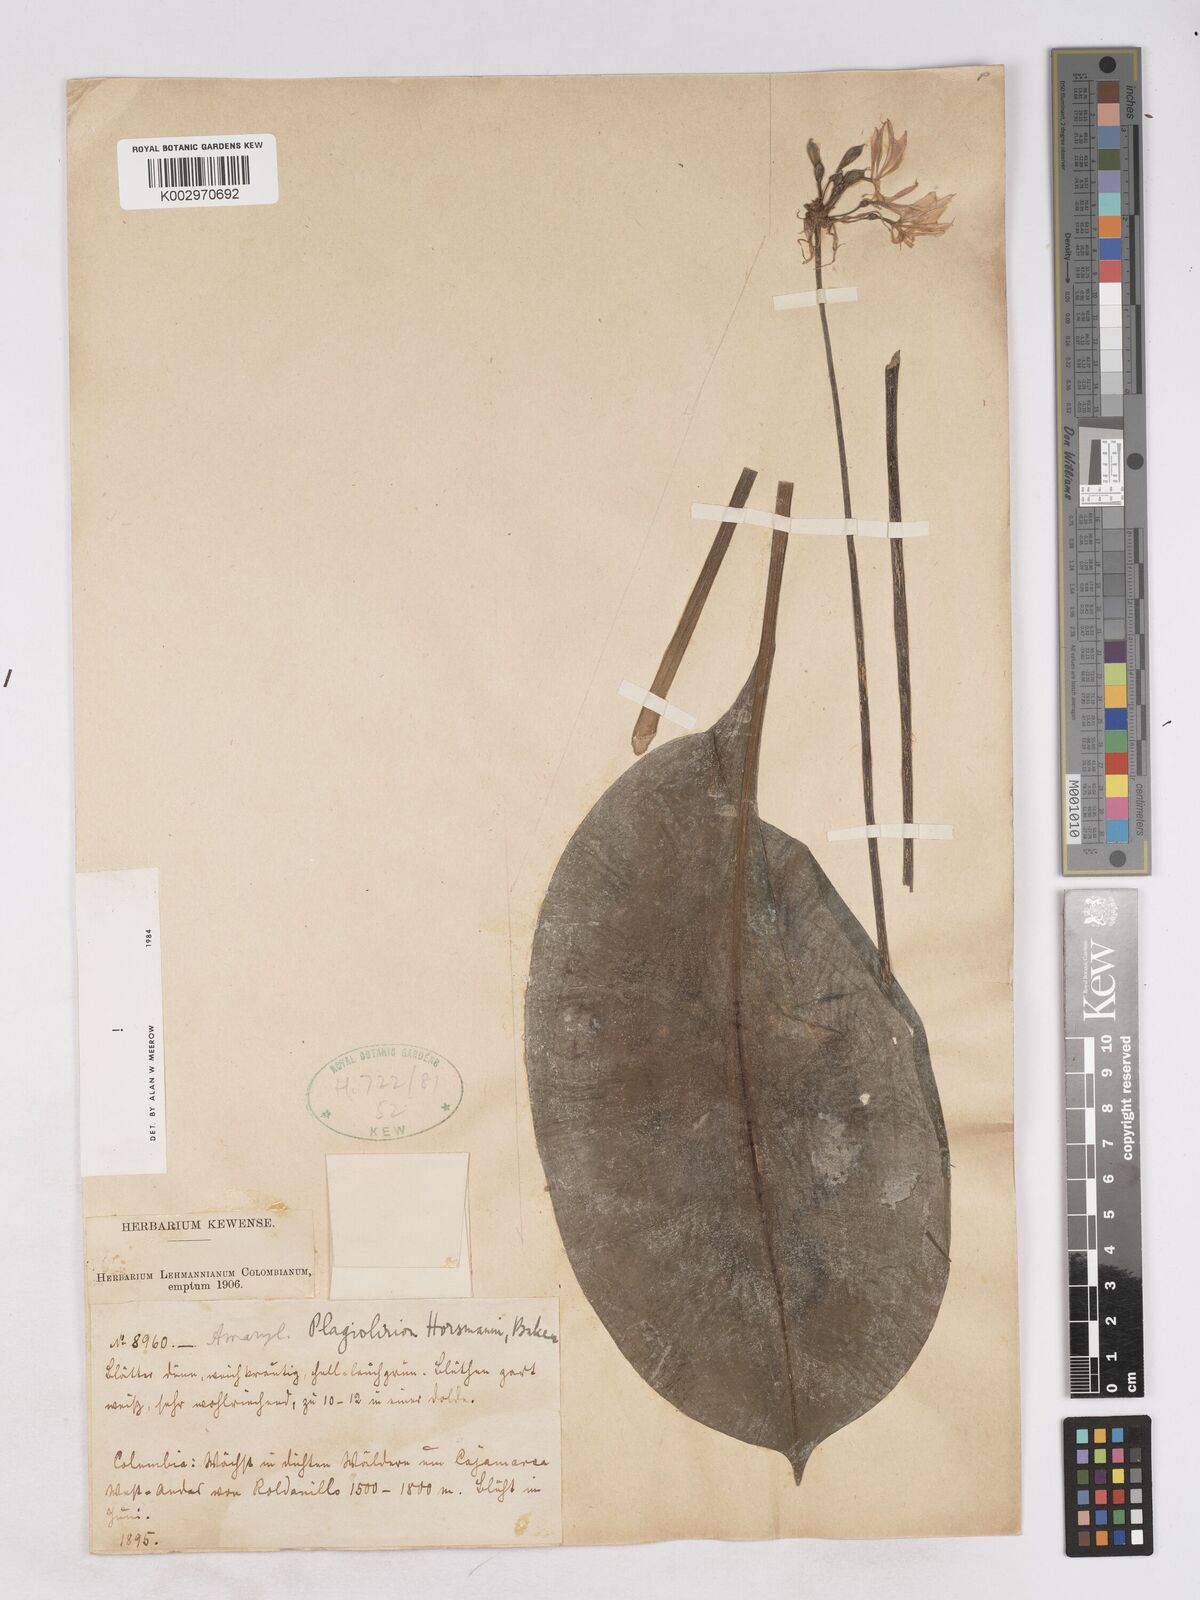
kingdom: Plantae
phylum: Tracheophyta
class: Liliopsida
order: Asparagales
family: Amaryllidaceae
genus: Plagiolirion
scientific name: Plagiolirion horsmannii
